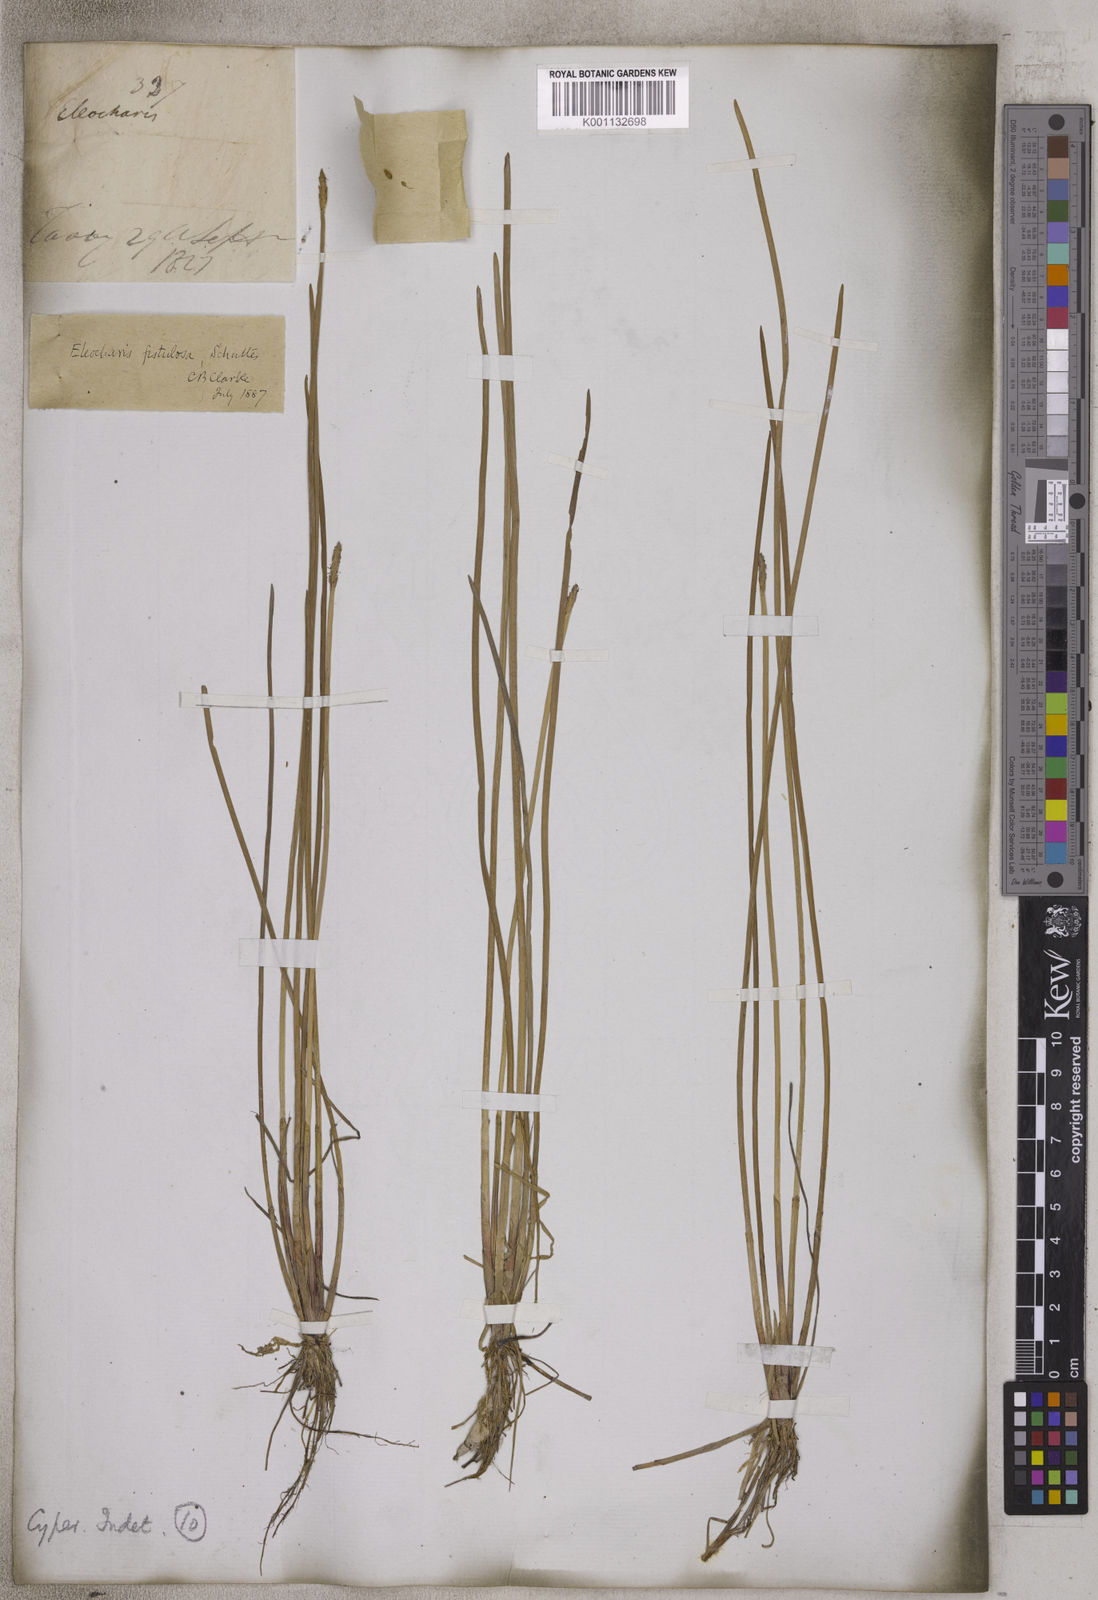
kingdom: Plantae
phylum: Tracheophyta
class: Liliopsida
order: Poales
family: Cyperaceae
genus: Eleocharis
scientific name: Eleocharis acutangula
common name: Acute spikerush
